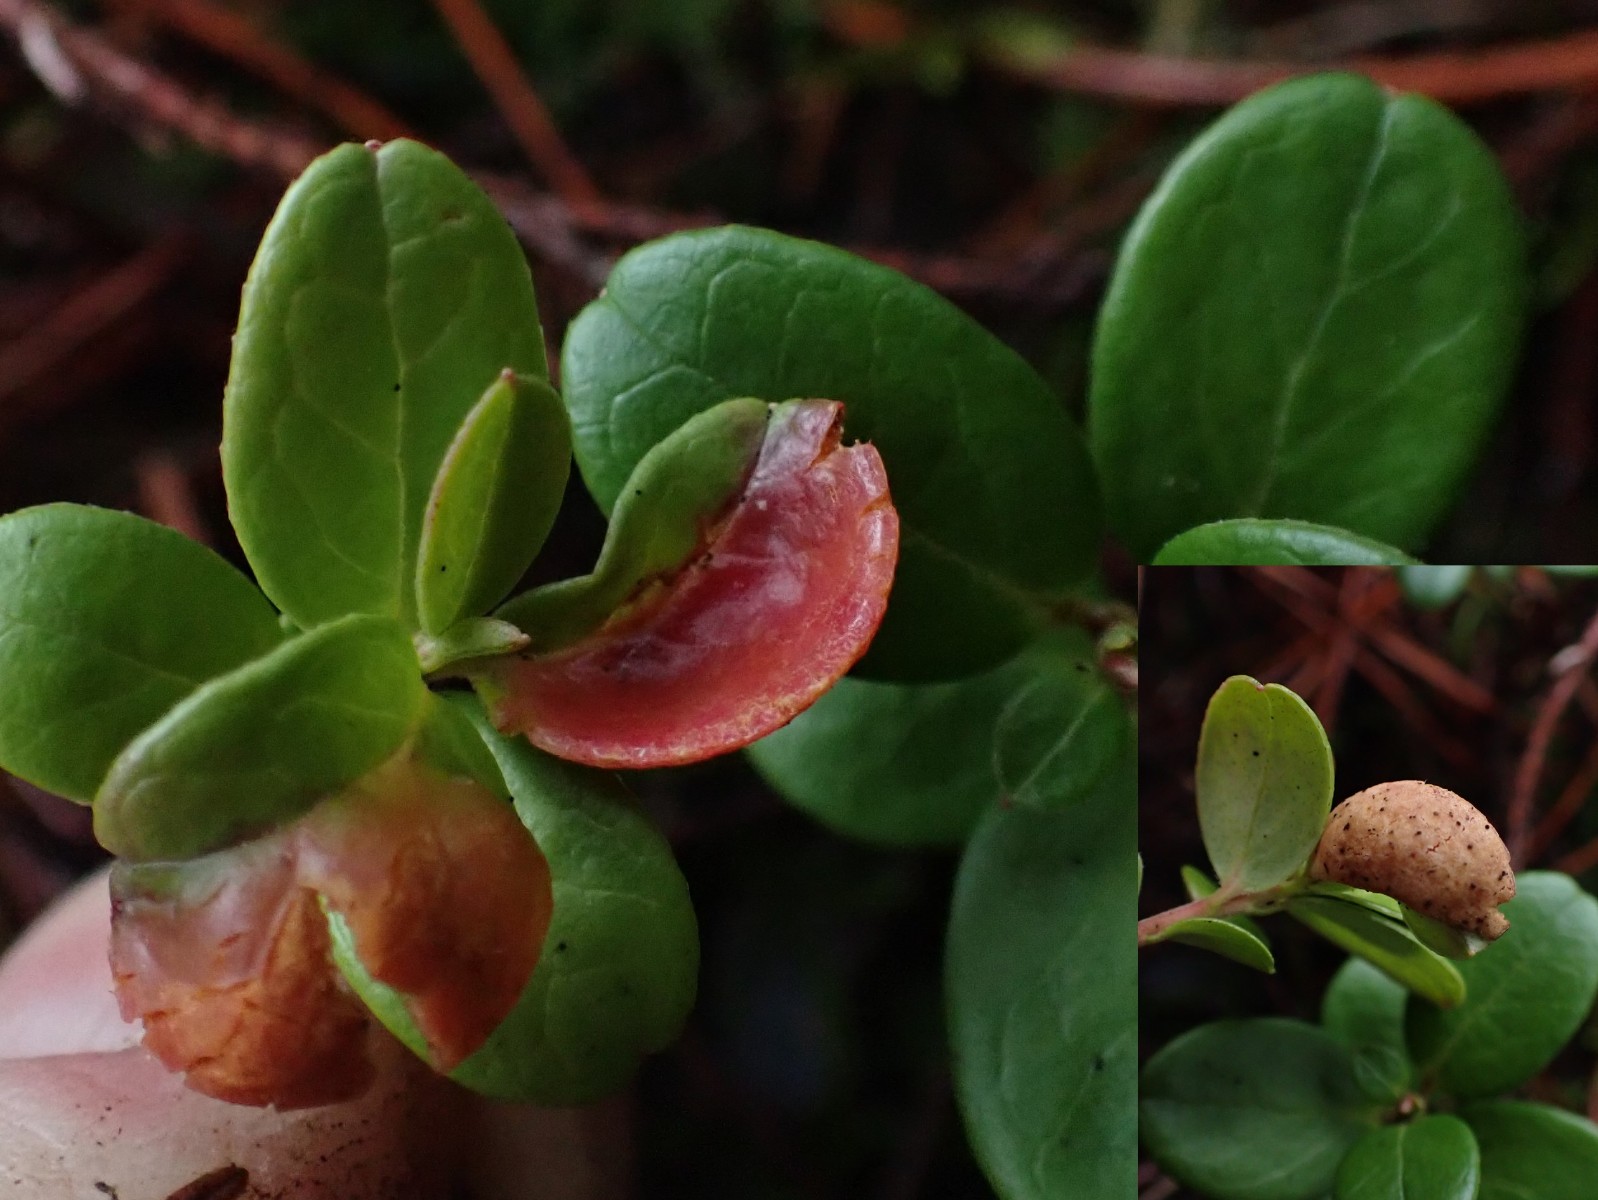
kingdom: Fungi
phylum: Basidiomycota
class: Exobasidiomycetes
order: Exobasidiales
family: Exobasidiaceae
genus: Exobasidium
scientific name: Exobasidium vaccinii
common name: tyttebærblad-bøllesvamp
